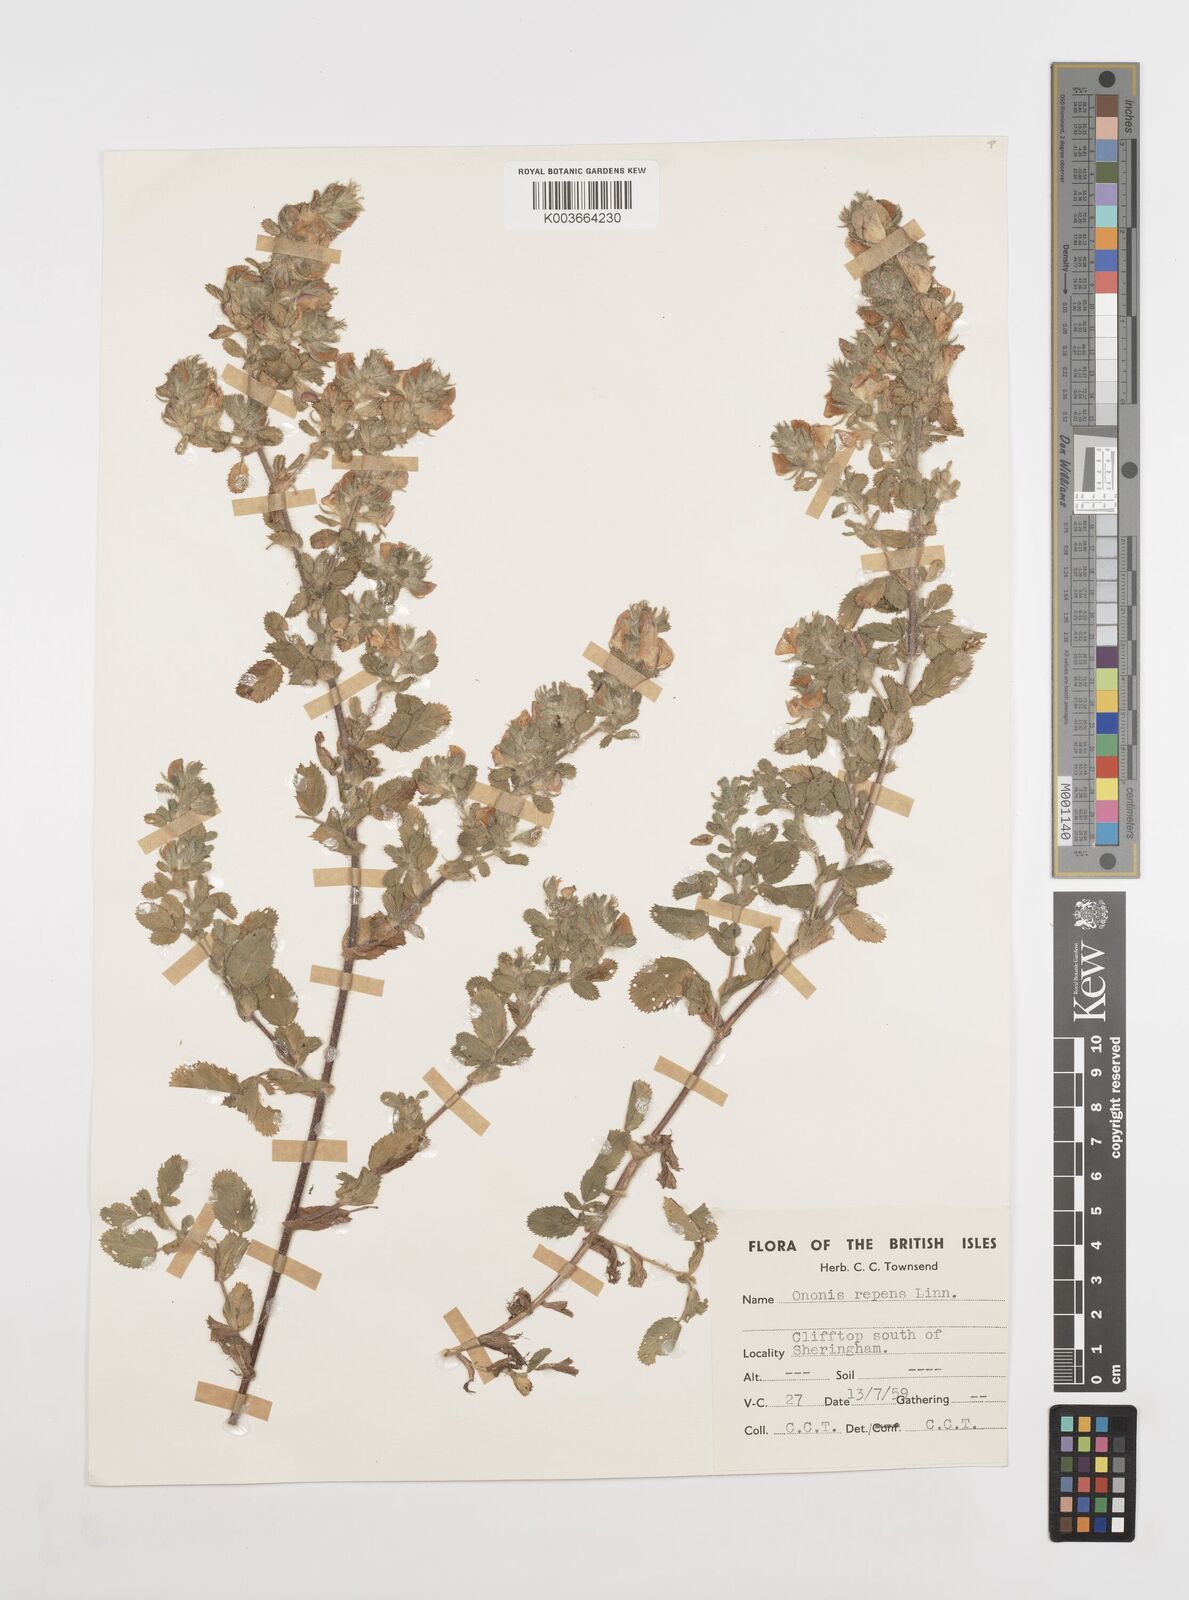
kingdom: Plantae
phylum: Tracheophyta
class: Magnoliopsida
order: Fabales
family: Fabaceae
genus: Ononis
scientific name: Ononis spinosa
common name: Spiny restharrow
